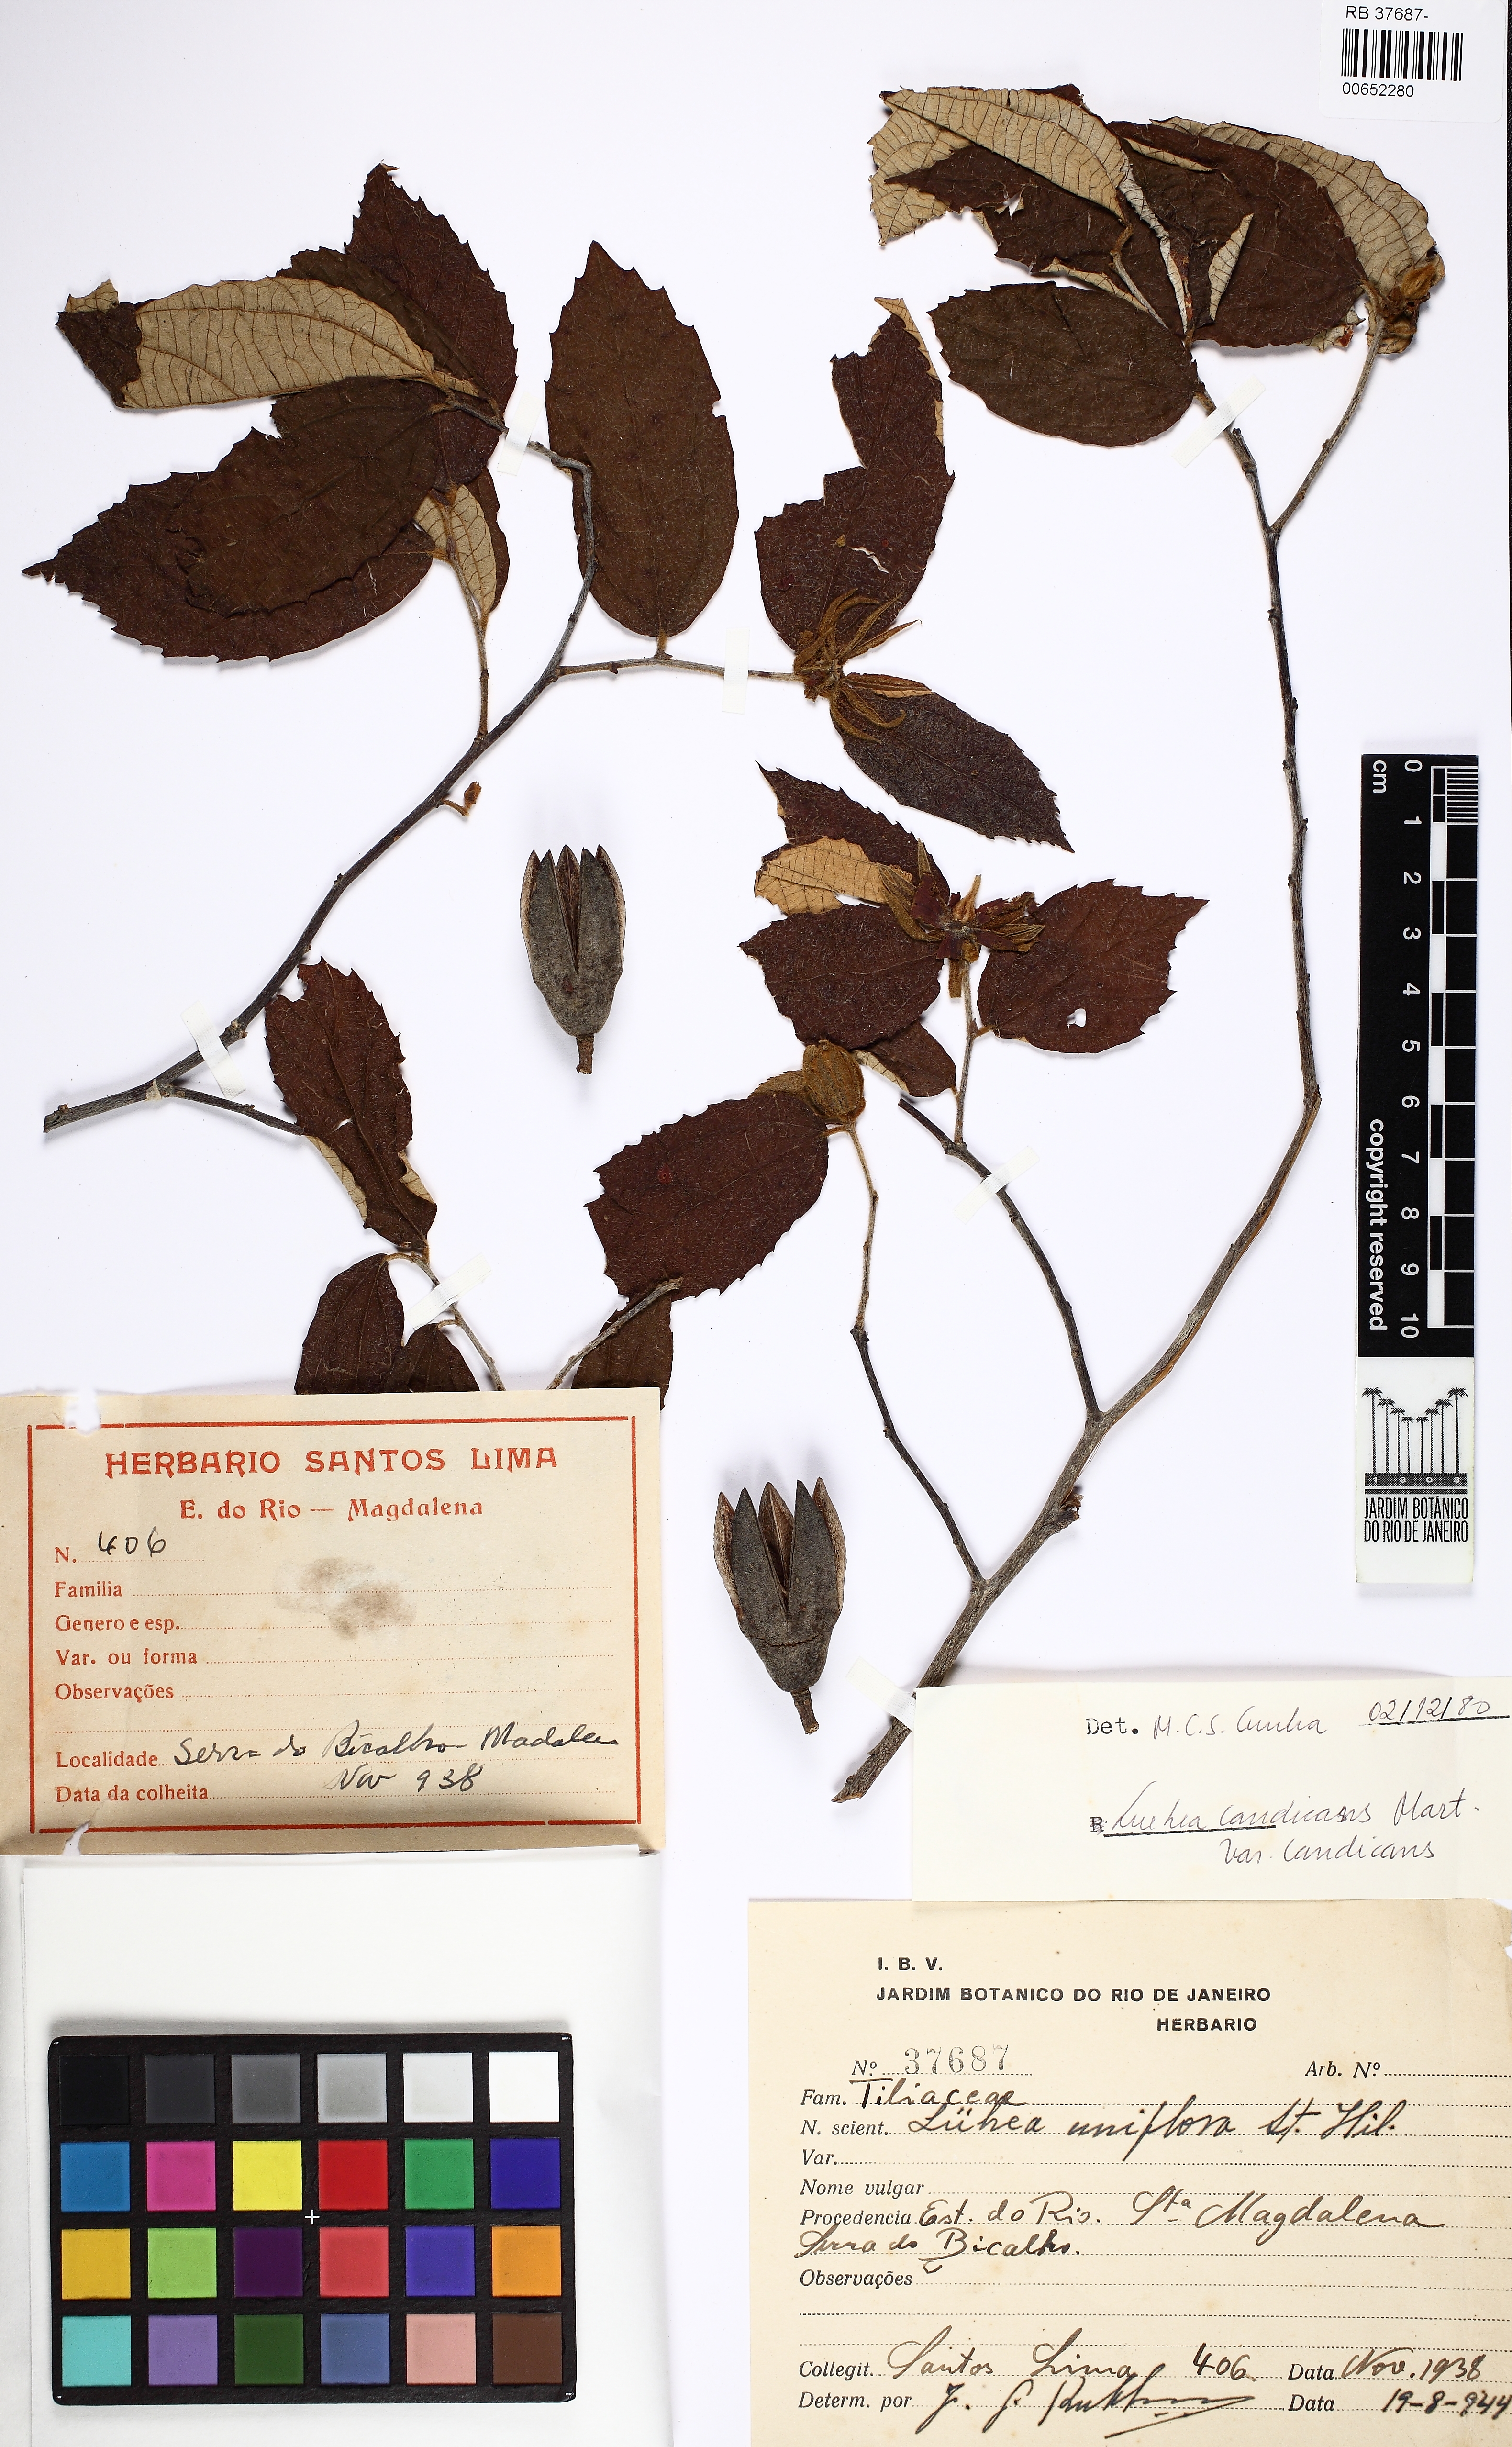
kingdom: Plantae
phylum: Tracheophyta
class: Magnoliopsida
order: Malvales
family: Malvaceae
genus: Luehea
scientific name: Luehea candicans
